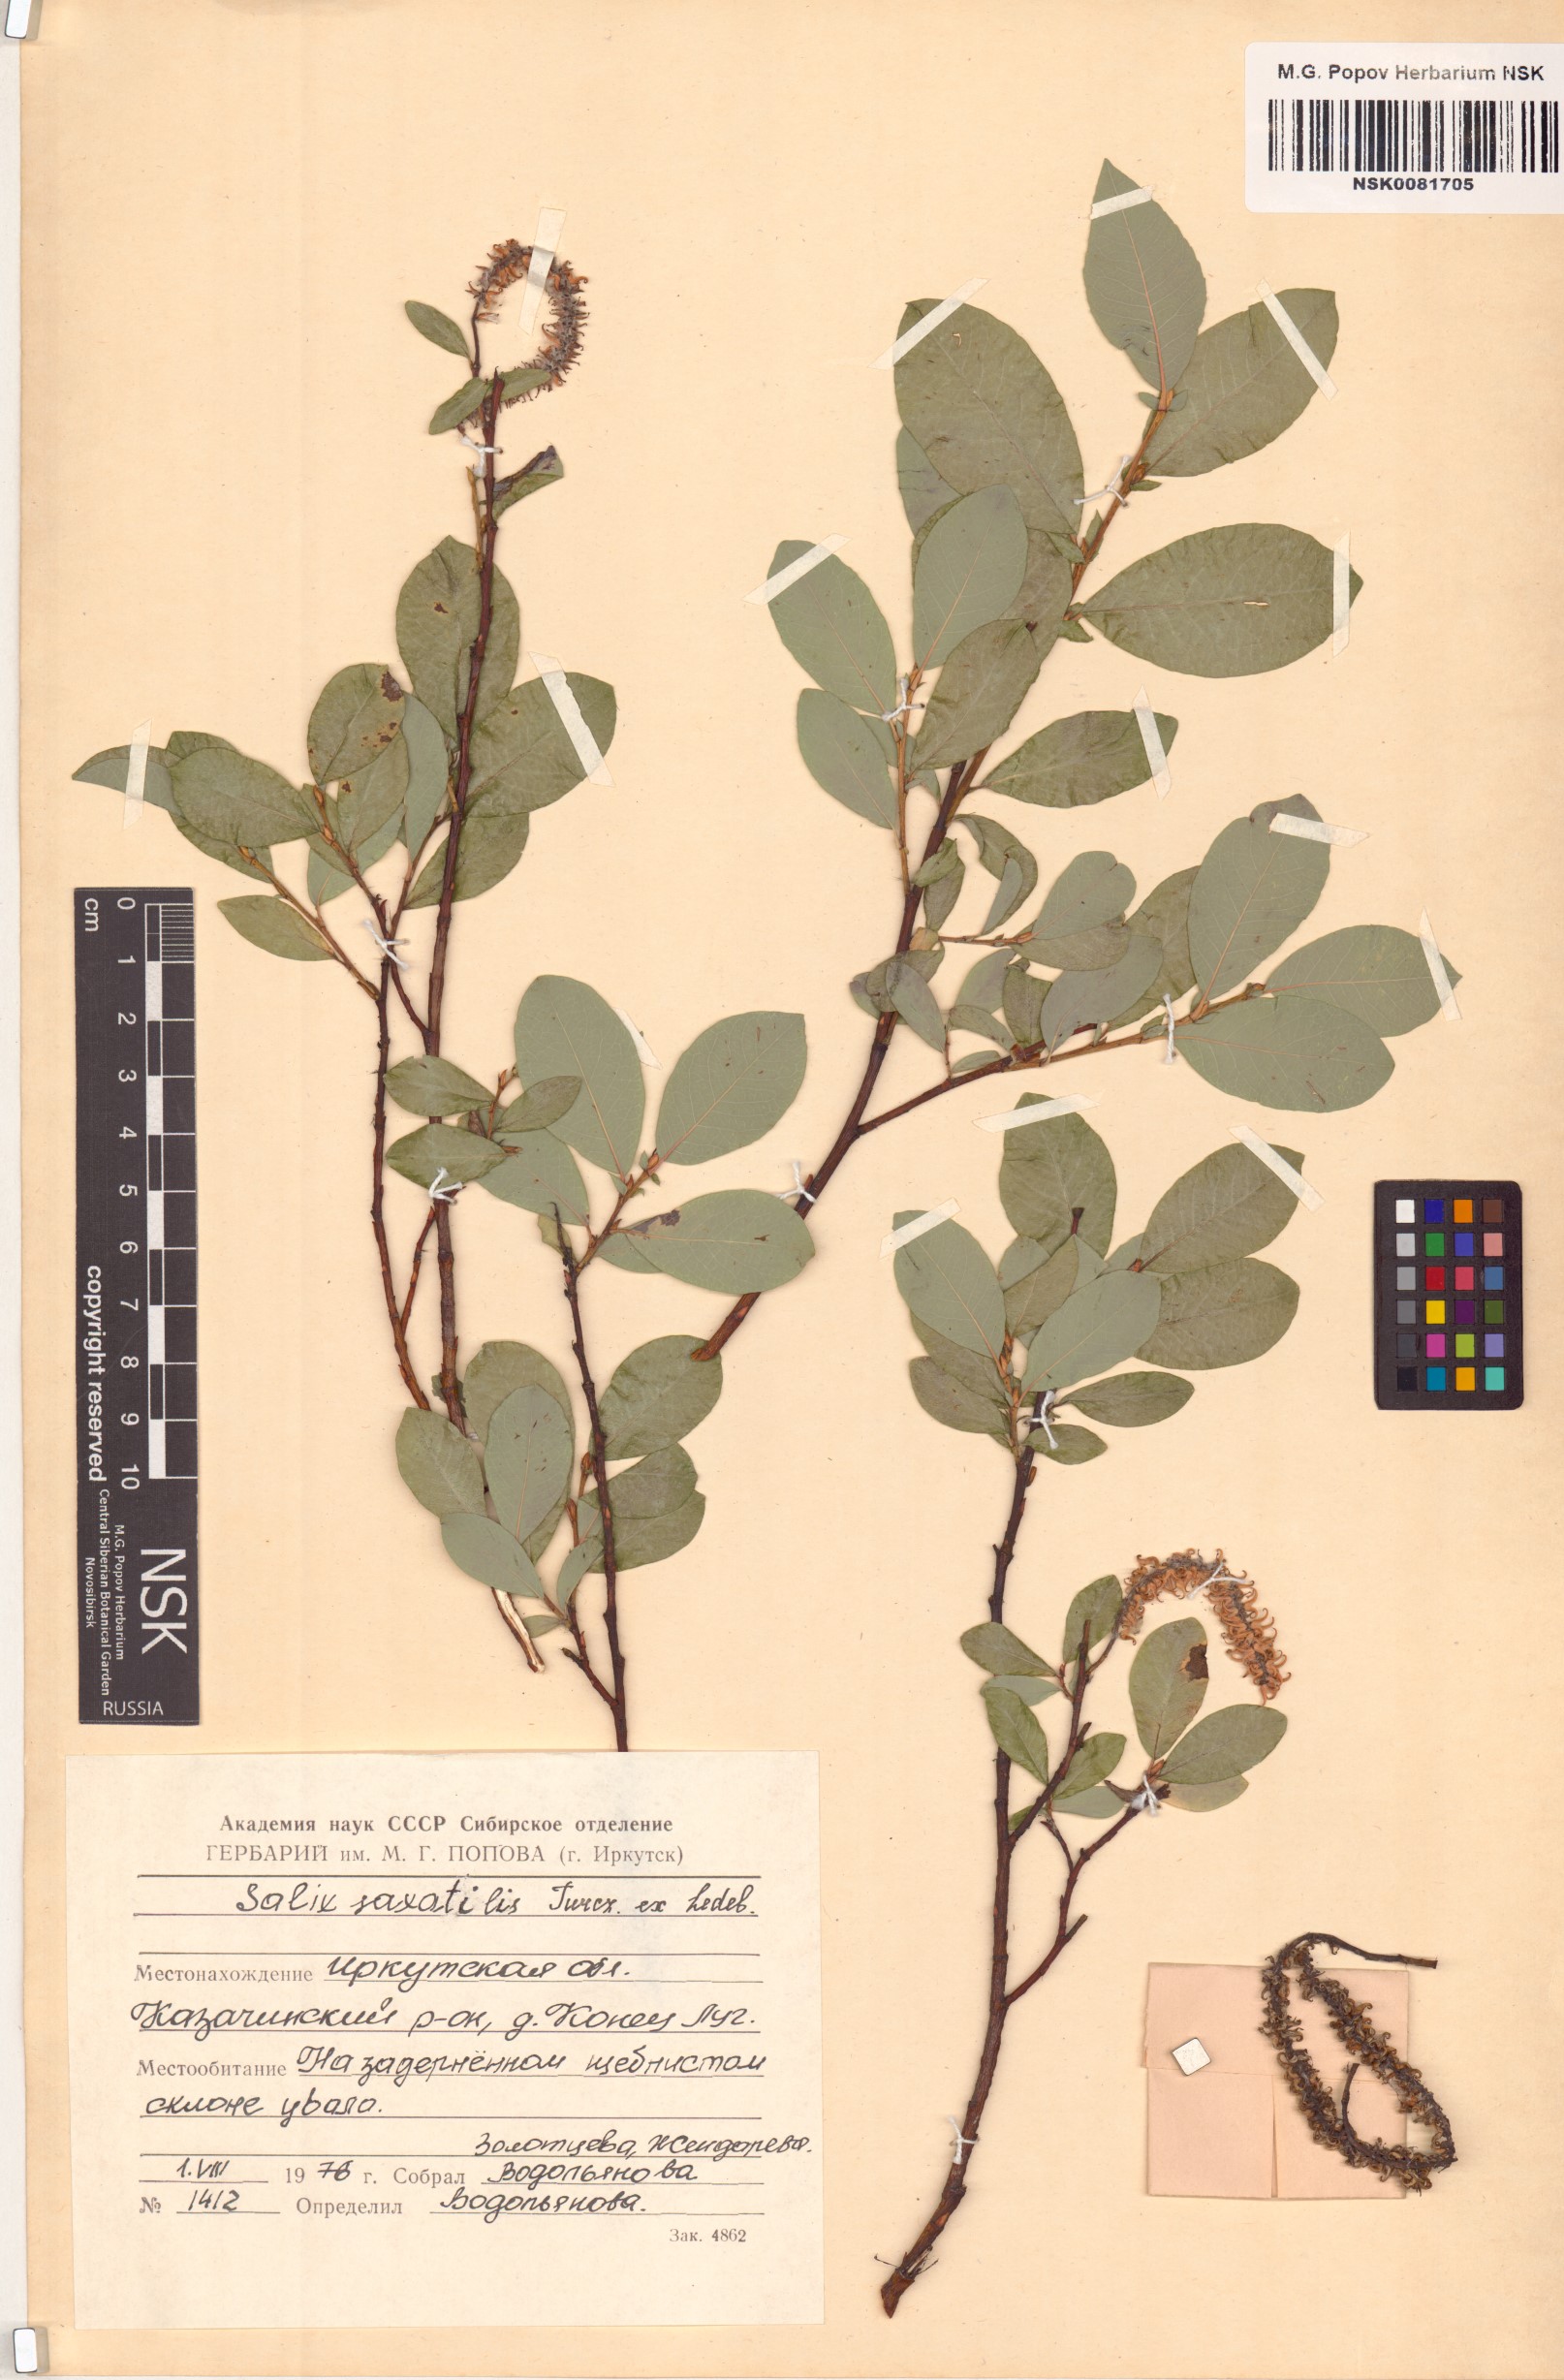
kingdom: Plantae
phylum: Tracheophyta
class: Magnoliopsida
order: Malpighiales
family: Salicaceae
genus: Salix
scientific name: Salix saxatilis
